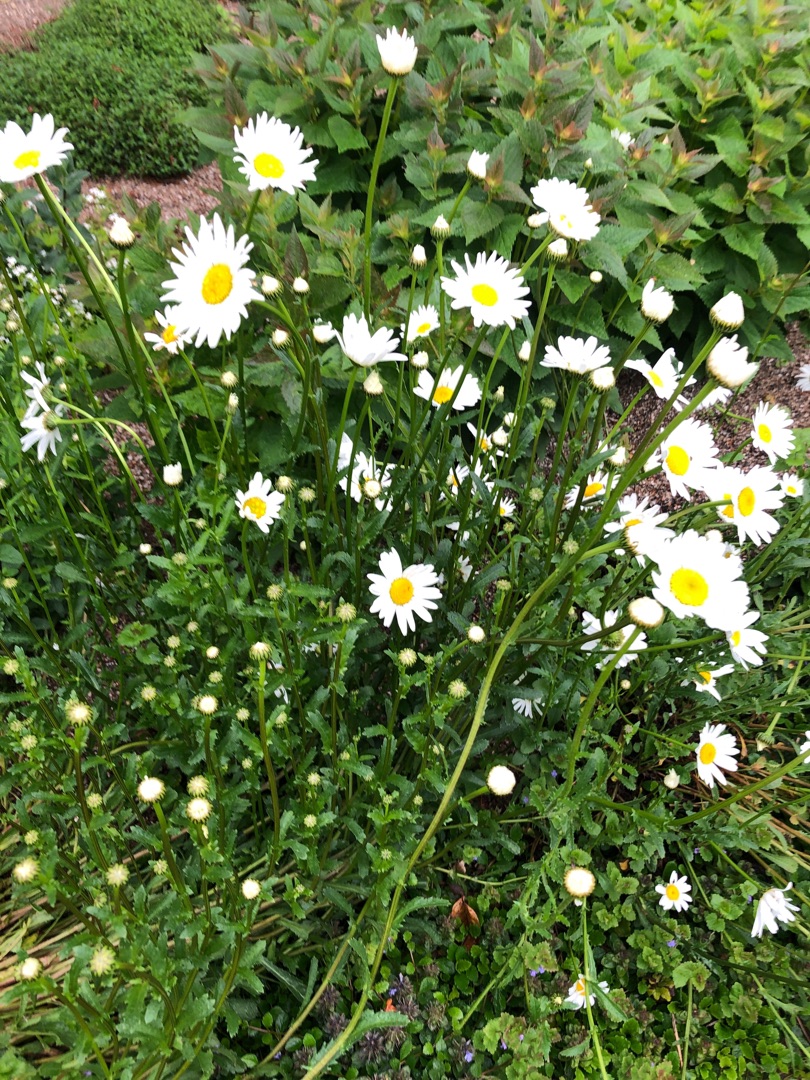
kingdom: Plantae
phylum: Tracheophyta
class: Magnoliopsida
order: Asterales
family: Asteraceae
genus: Leucanthemum
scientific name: Leucanthemum vulgare
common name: Hvid okseøje
